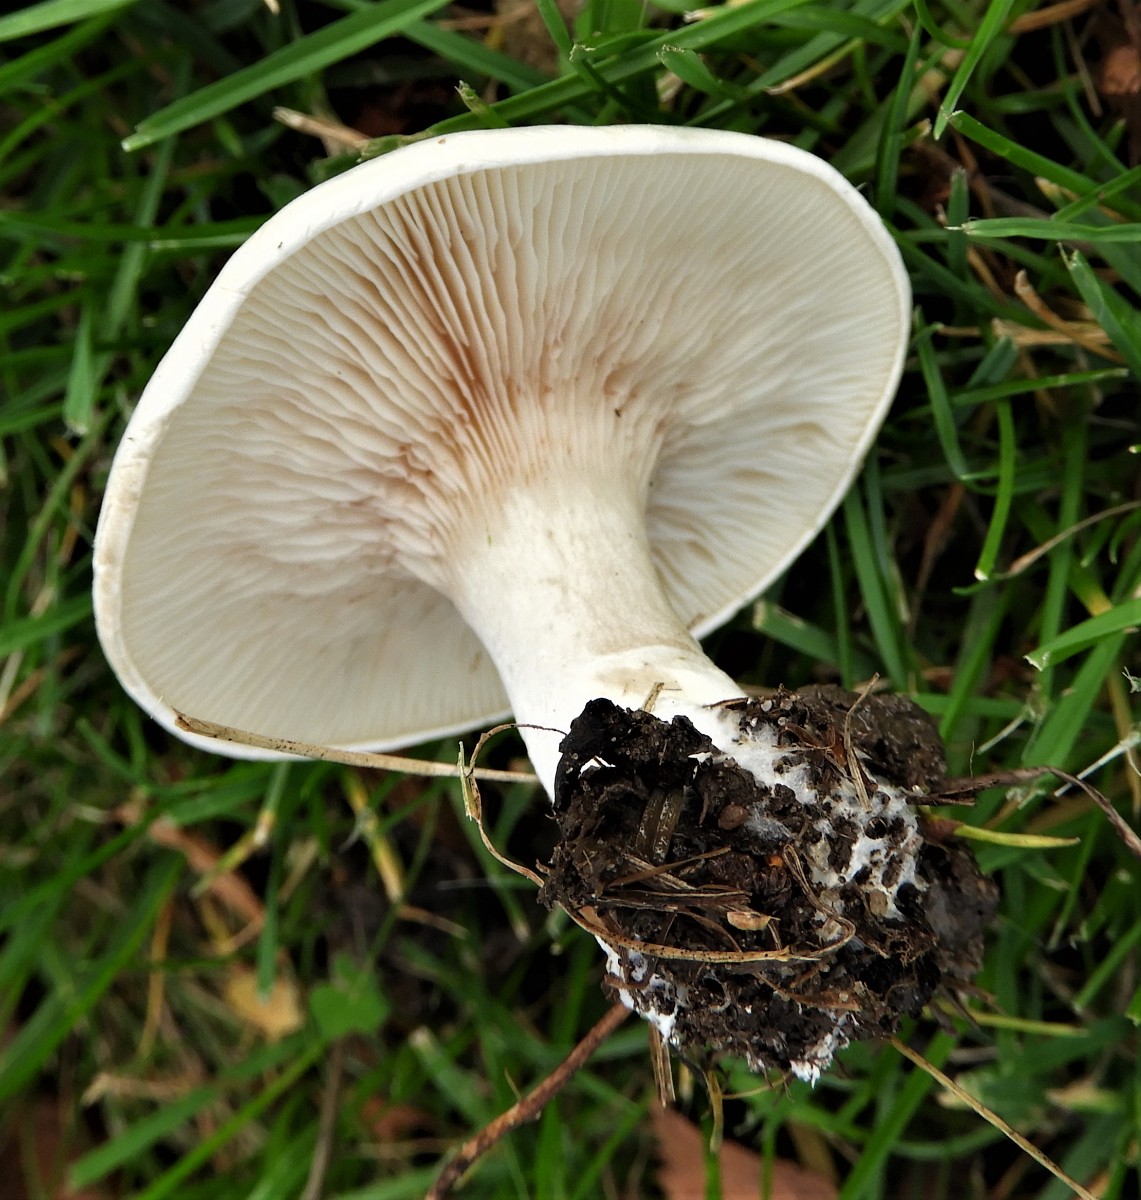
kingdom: Fungi
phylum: Basidiomycota
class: Agaricomycetes
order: Agaricales
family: Entolomataceae
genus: Clitopilus
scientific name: Clitopilus prunulus
